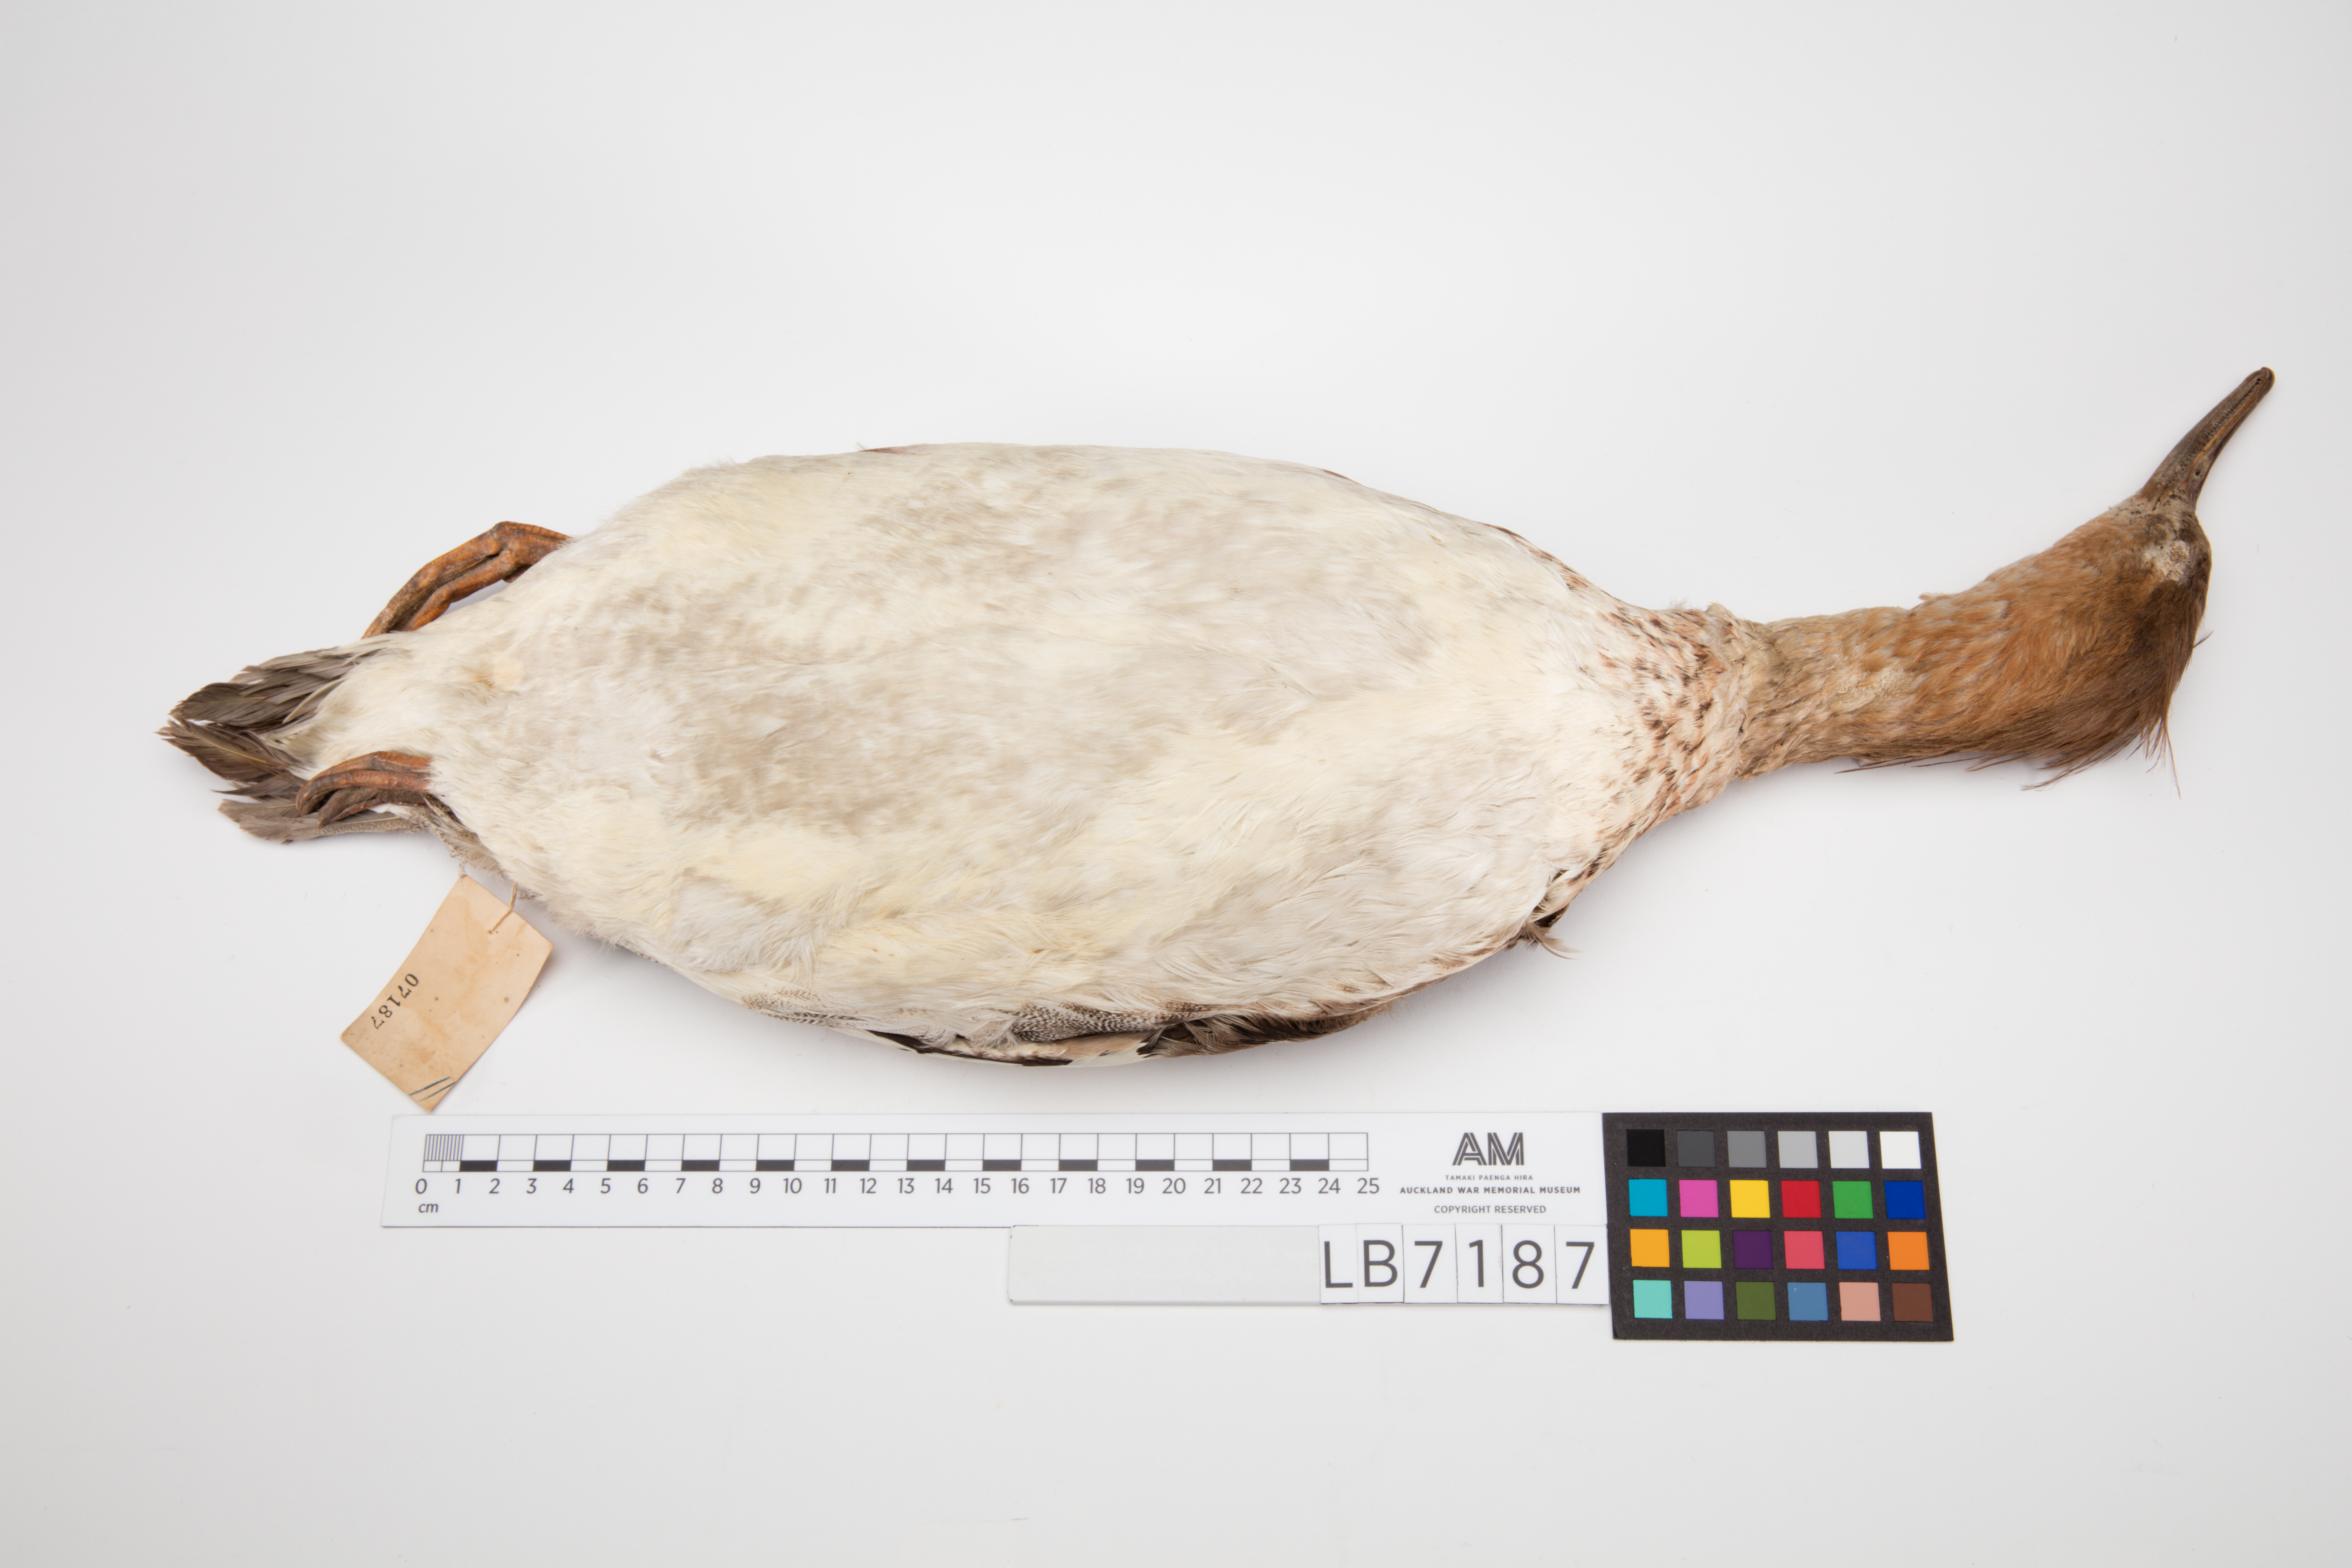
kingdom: Animalia
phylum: Chordata
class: Aves
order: Anseriformes
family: Anatidae
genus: Mergus
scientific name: Mergus serrator
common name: Red-breasted merganser
